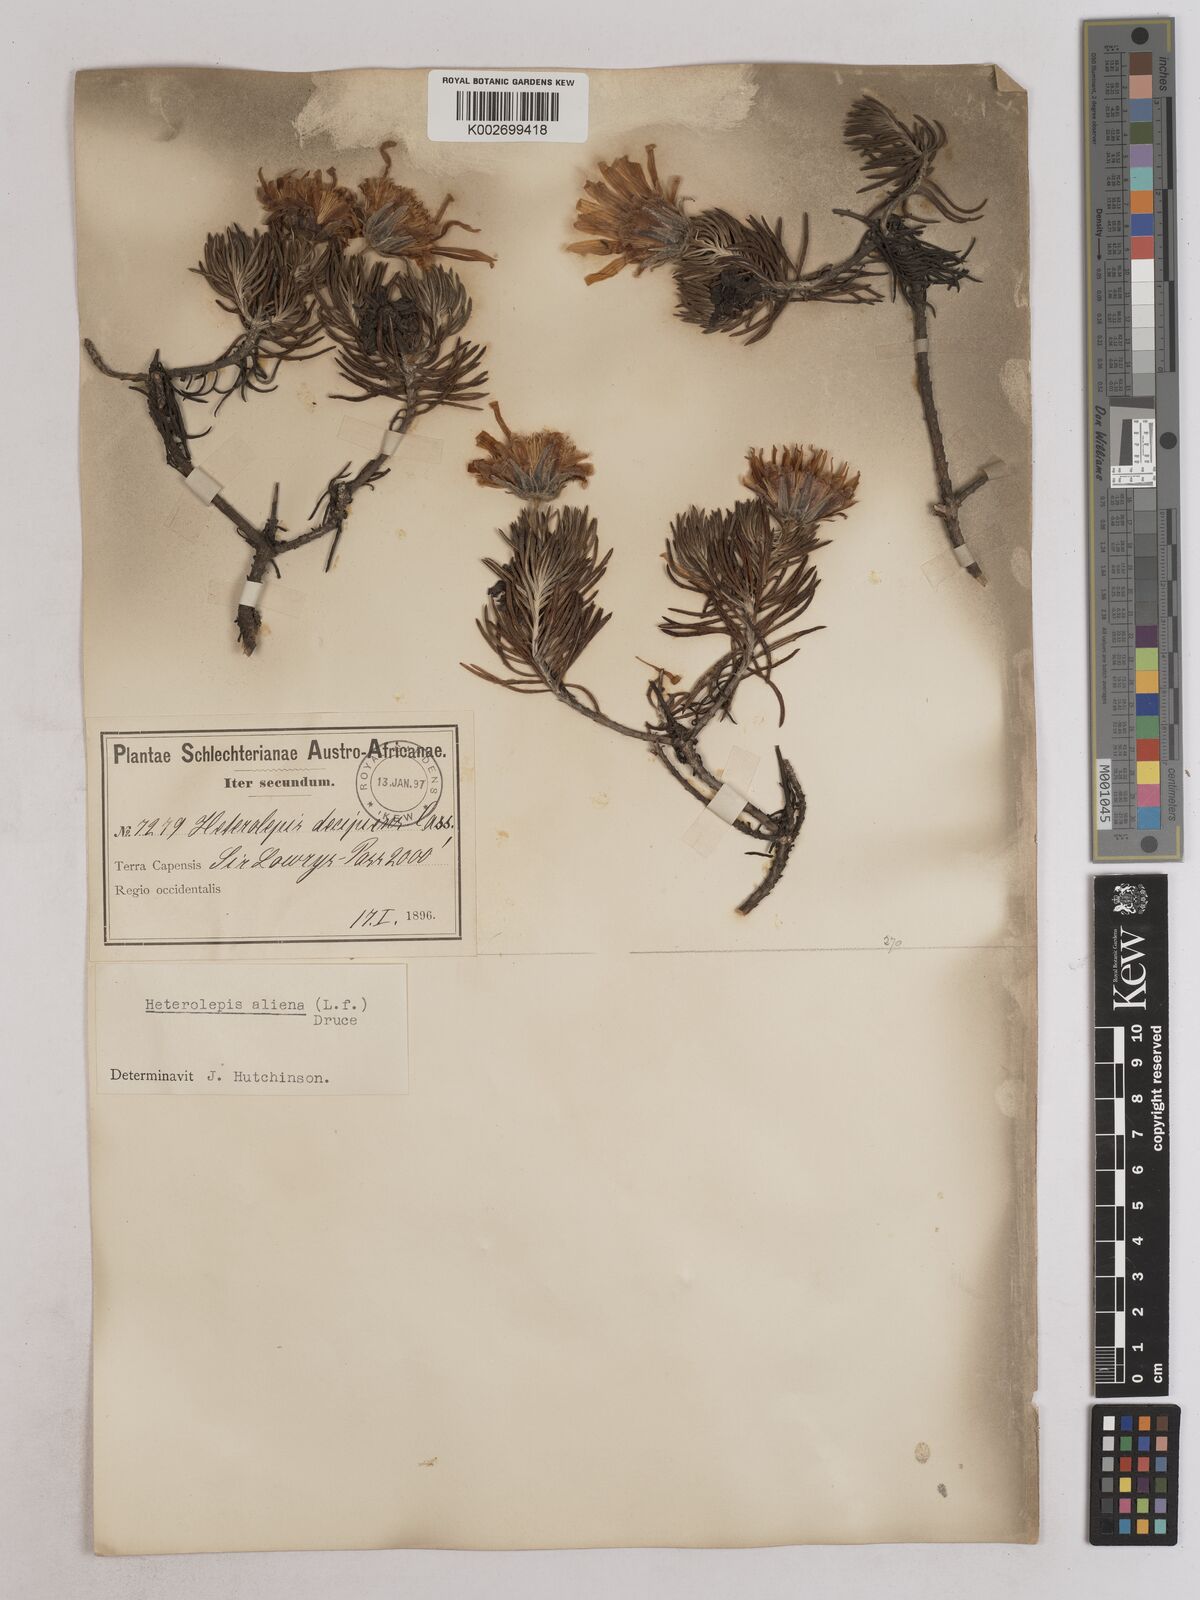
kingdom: Plantae
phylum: Tracheophyta
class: Magnoliopsida
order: Asterales
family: Asteraceae
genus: Heterolepis
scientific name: Heterolepis aliena
